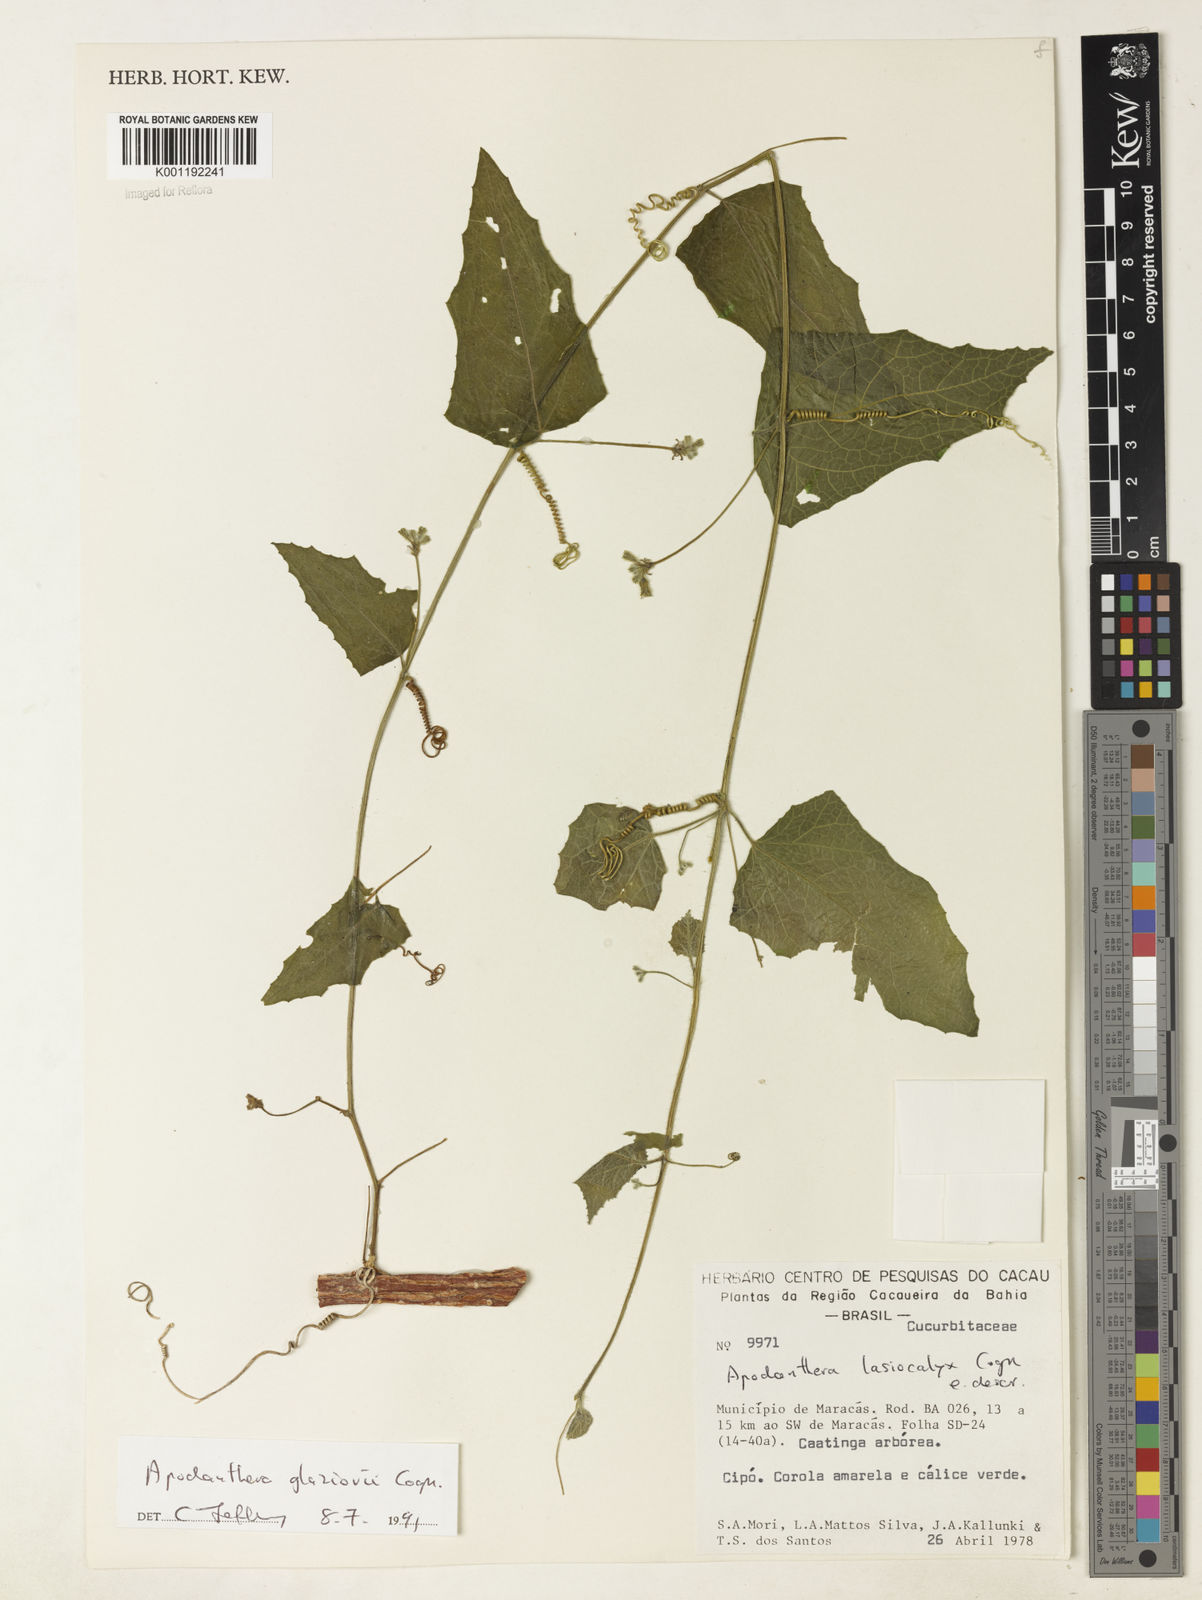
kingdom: Plantae
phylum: Tracheophyta
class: Magnoliopsida
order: Cucurbitales
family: Cucurbitaceae
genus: Apodanthera
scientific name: Apodanthera glaziovii
